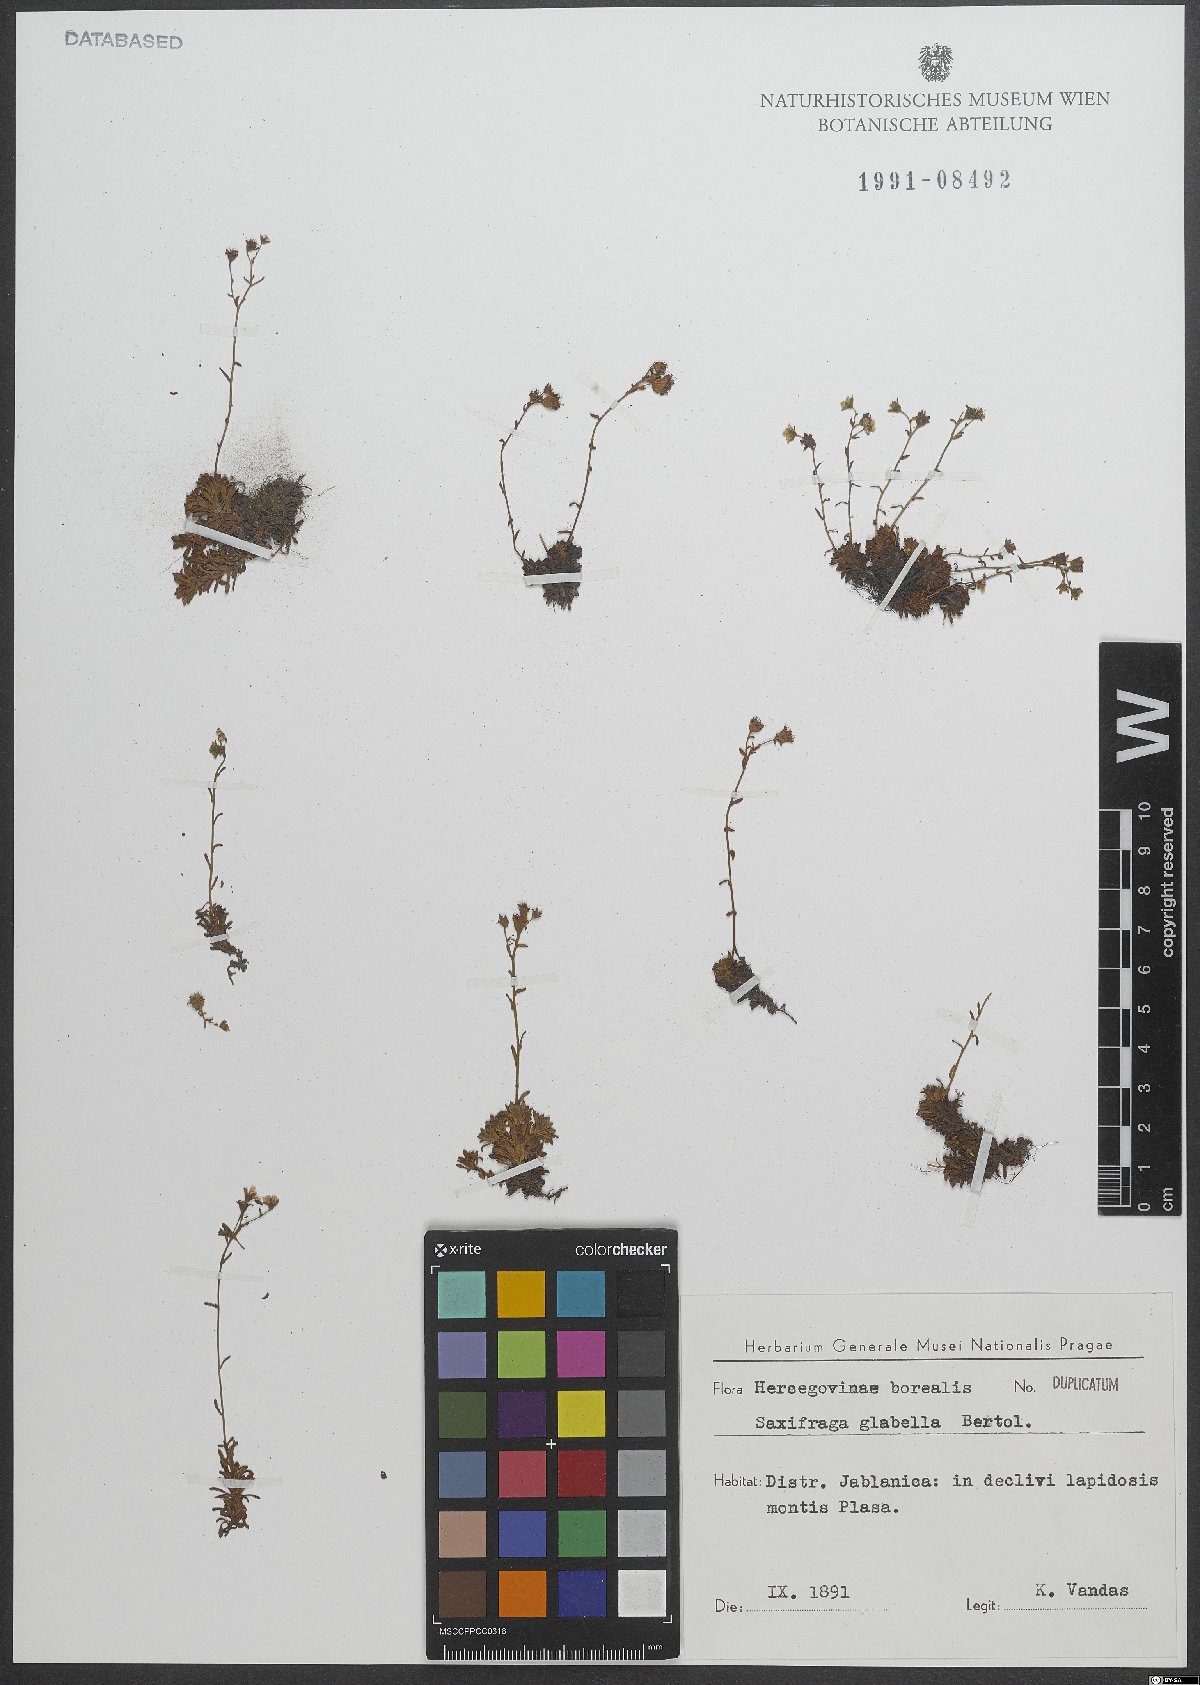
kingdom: Plantae
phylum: Tracheophyta
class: Magnoliopsida
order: Saxifragales
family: Saxifragaceae
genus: Saxifraga
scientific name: Saxifraga glabella
